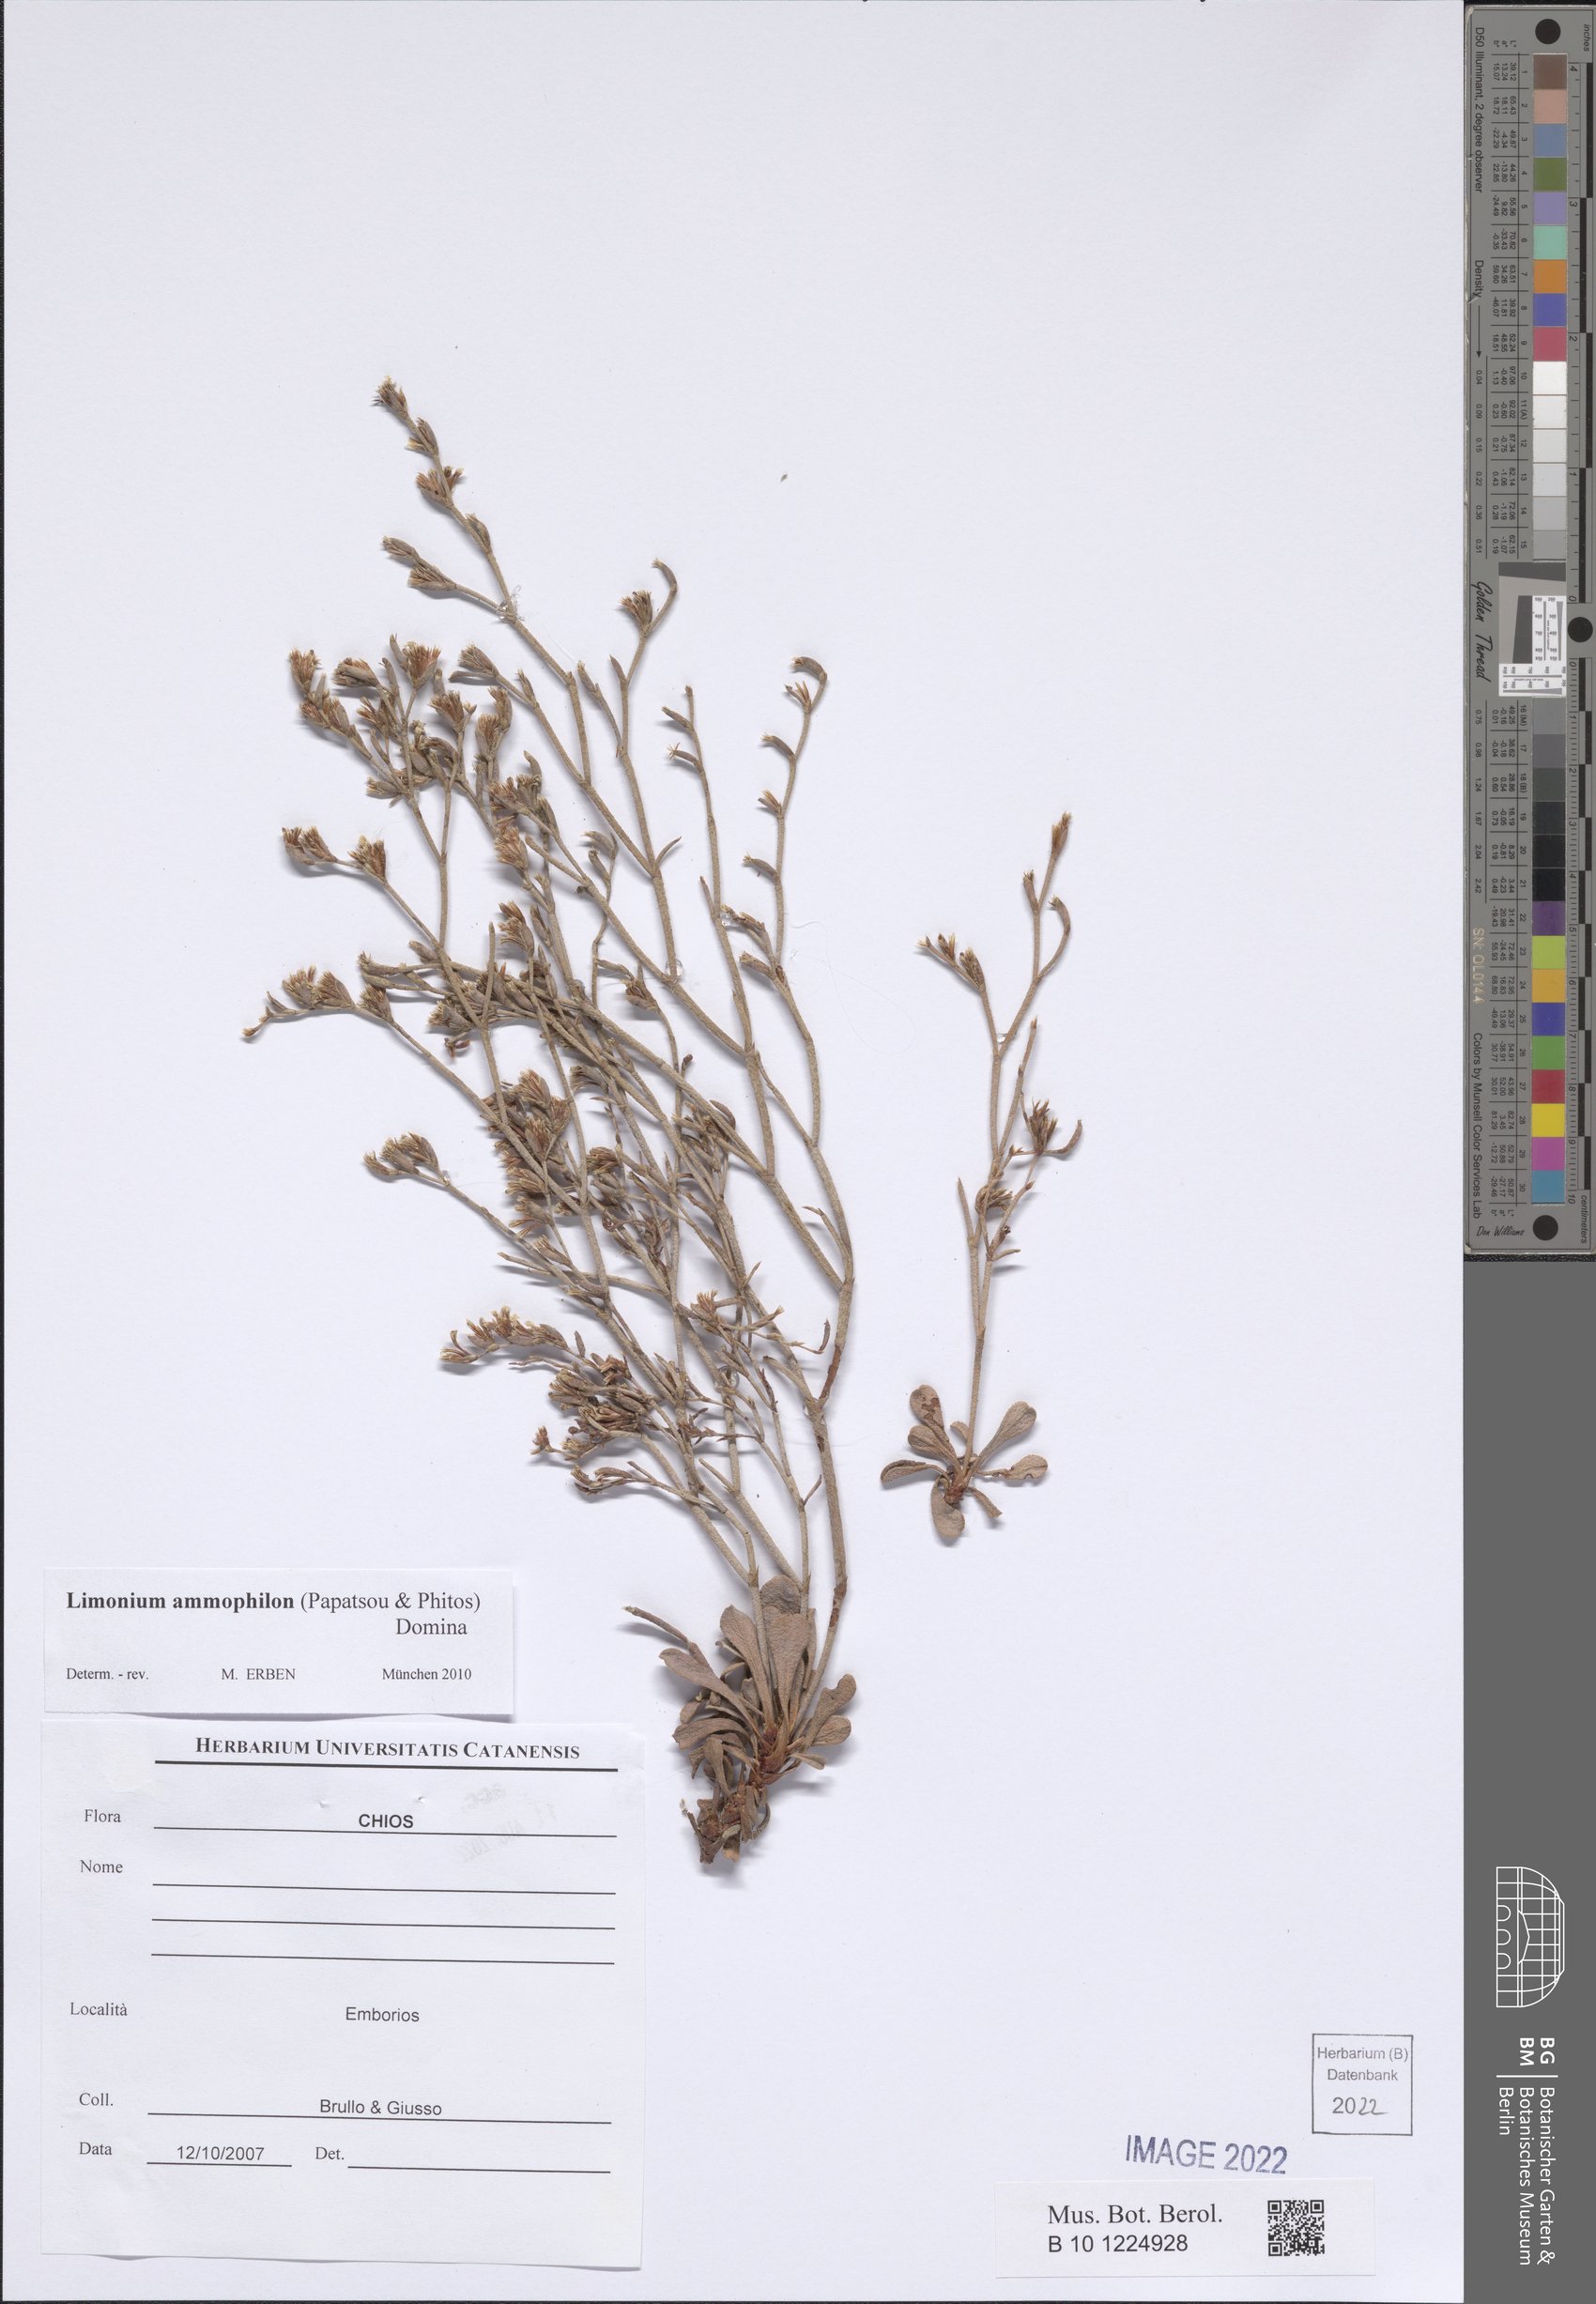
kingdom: Plantae
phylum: Tracheophyta
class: Magnoliopsida
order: Caryophyllales
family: Plumbaginaceae
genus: Limonium
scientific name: Limonium ammophilon
